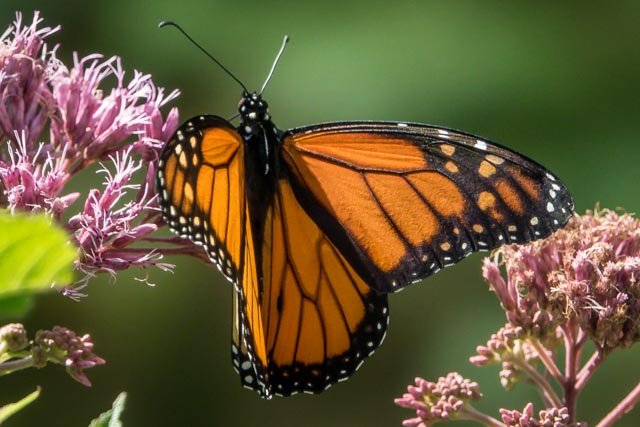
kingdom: Animalia
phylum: Arthropoda
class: Insecta
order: Lepidoptera
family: Nymphalidae
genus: Danaus
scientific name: Danaus plexippus
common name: Monarch
